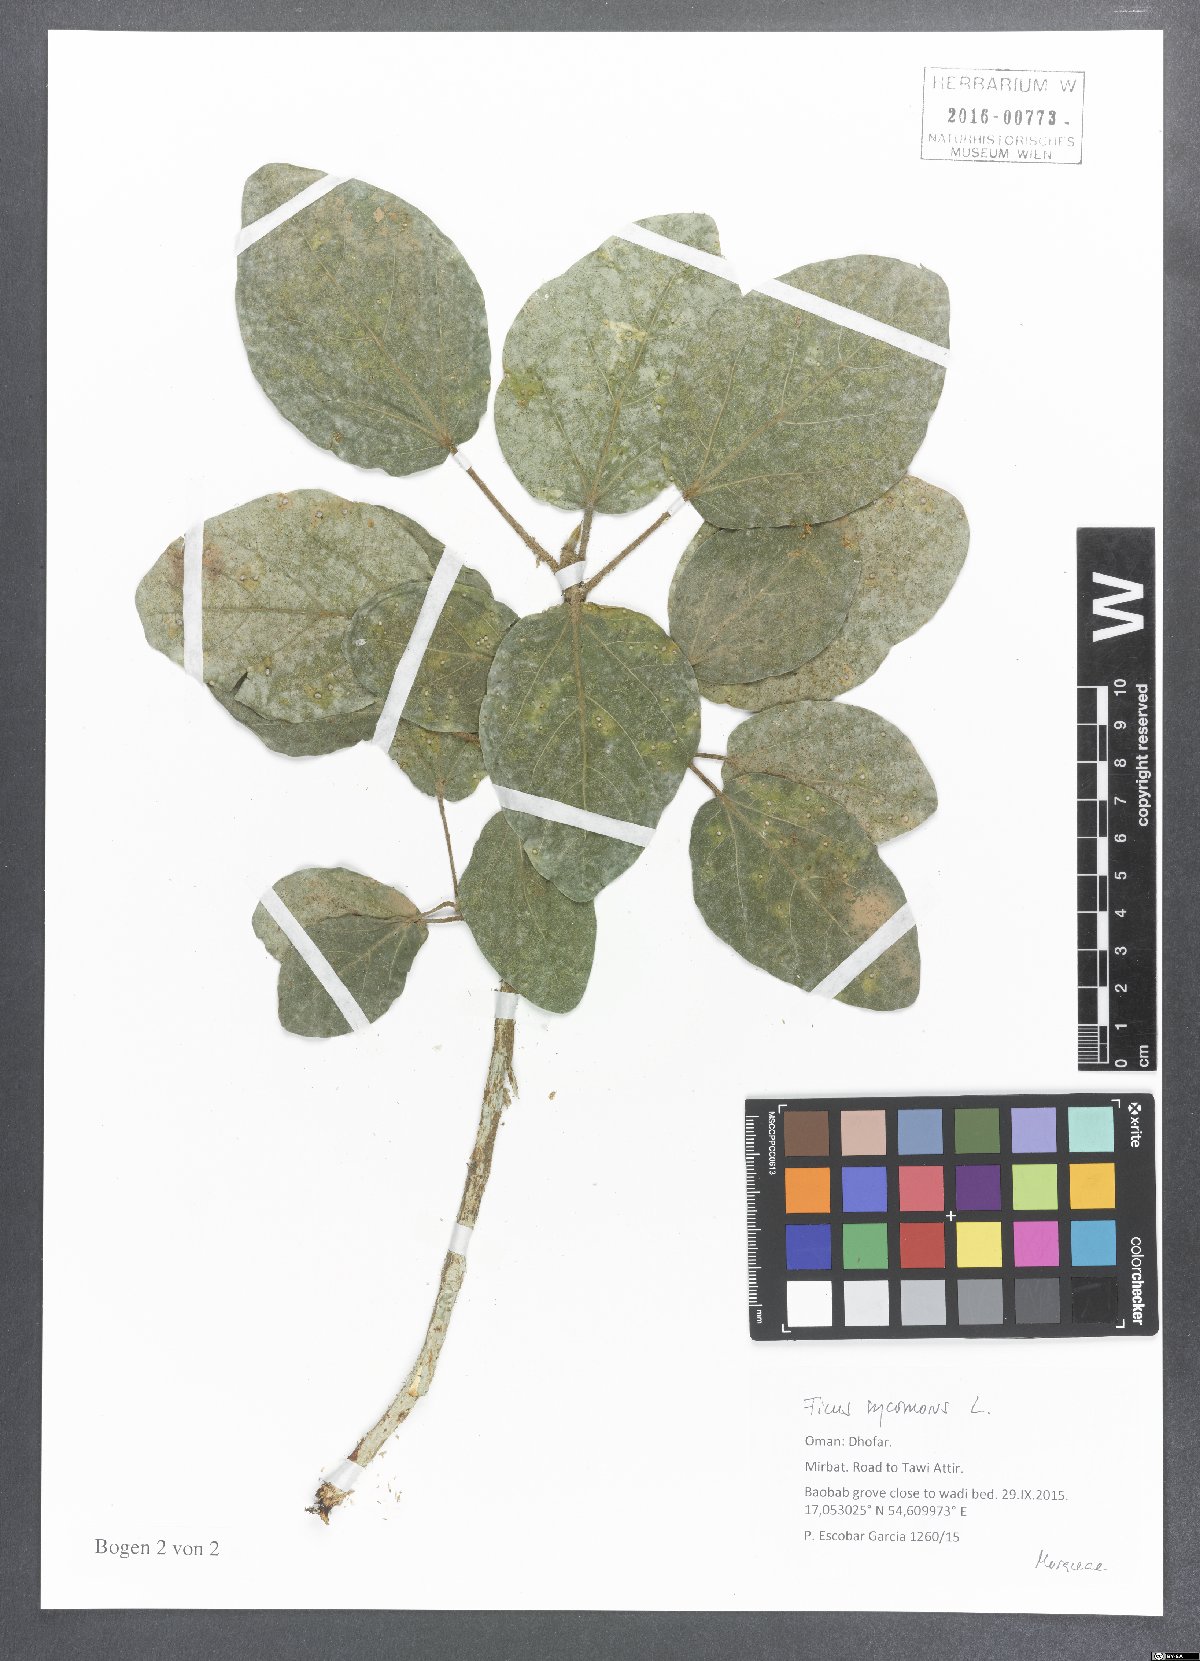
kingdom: Plantae
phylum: Tracheophyta
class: Magnoliopsida
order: Rosales
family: Moraceae
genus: Ficus
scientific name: Ficus sycomorus
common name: Sycomore
